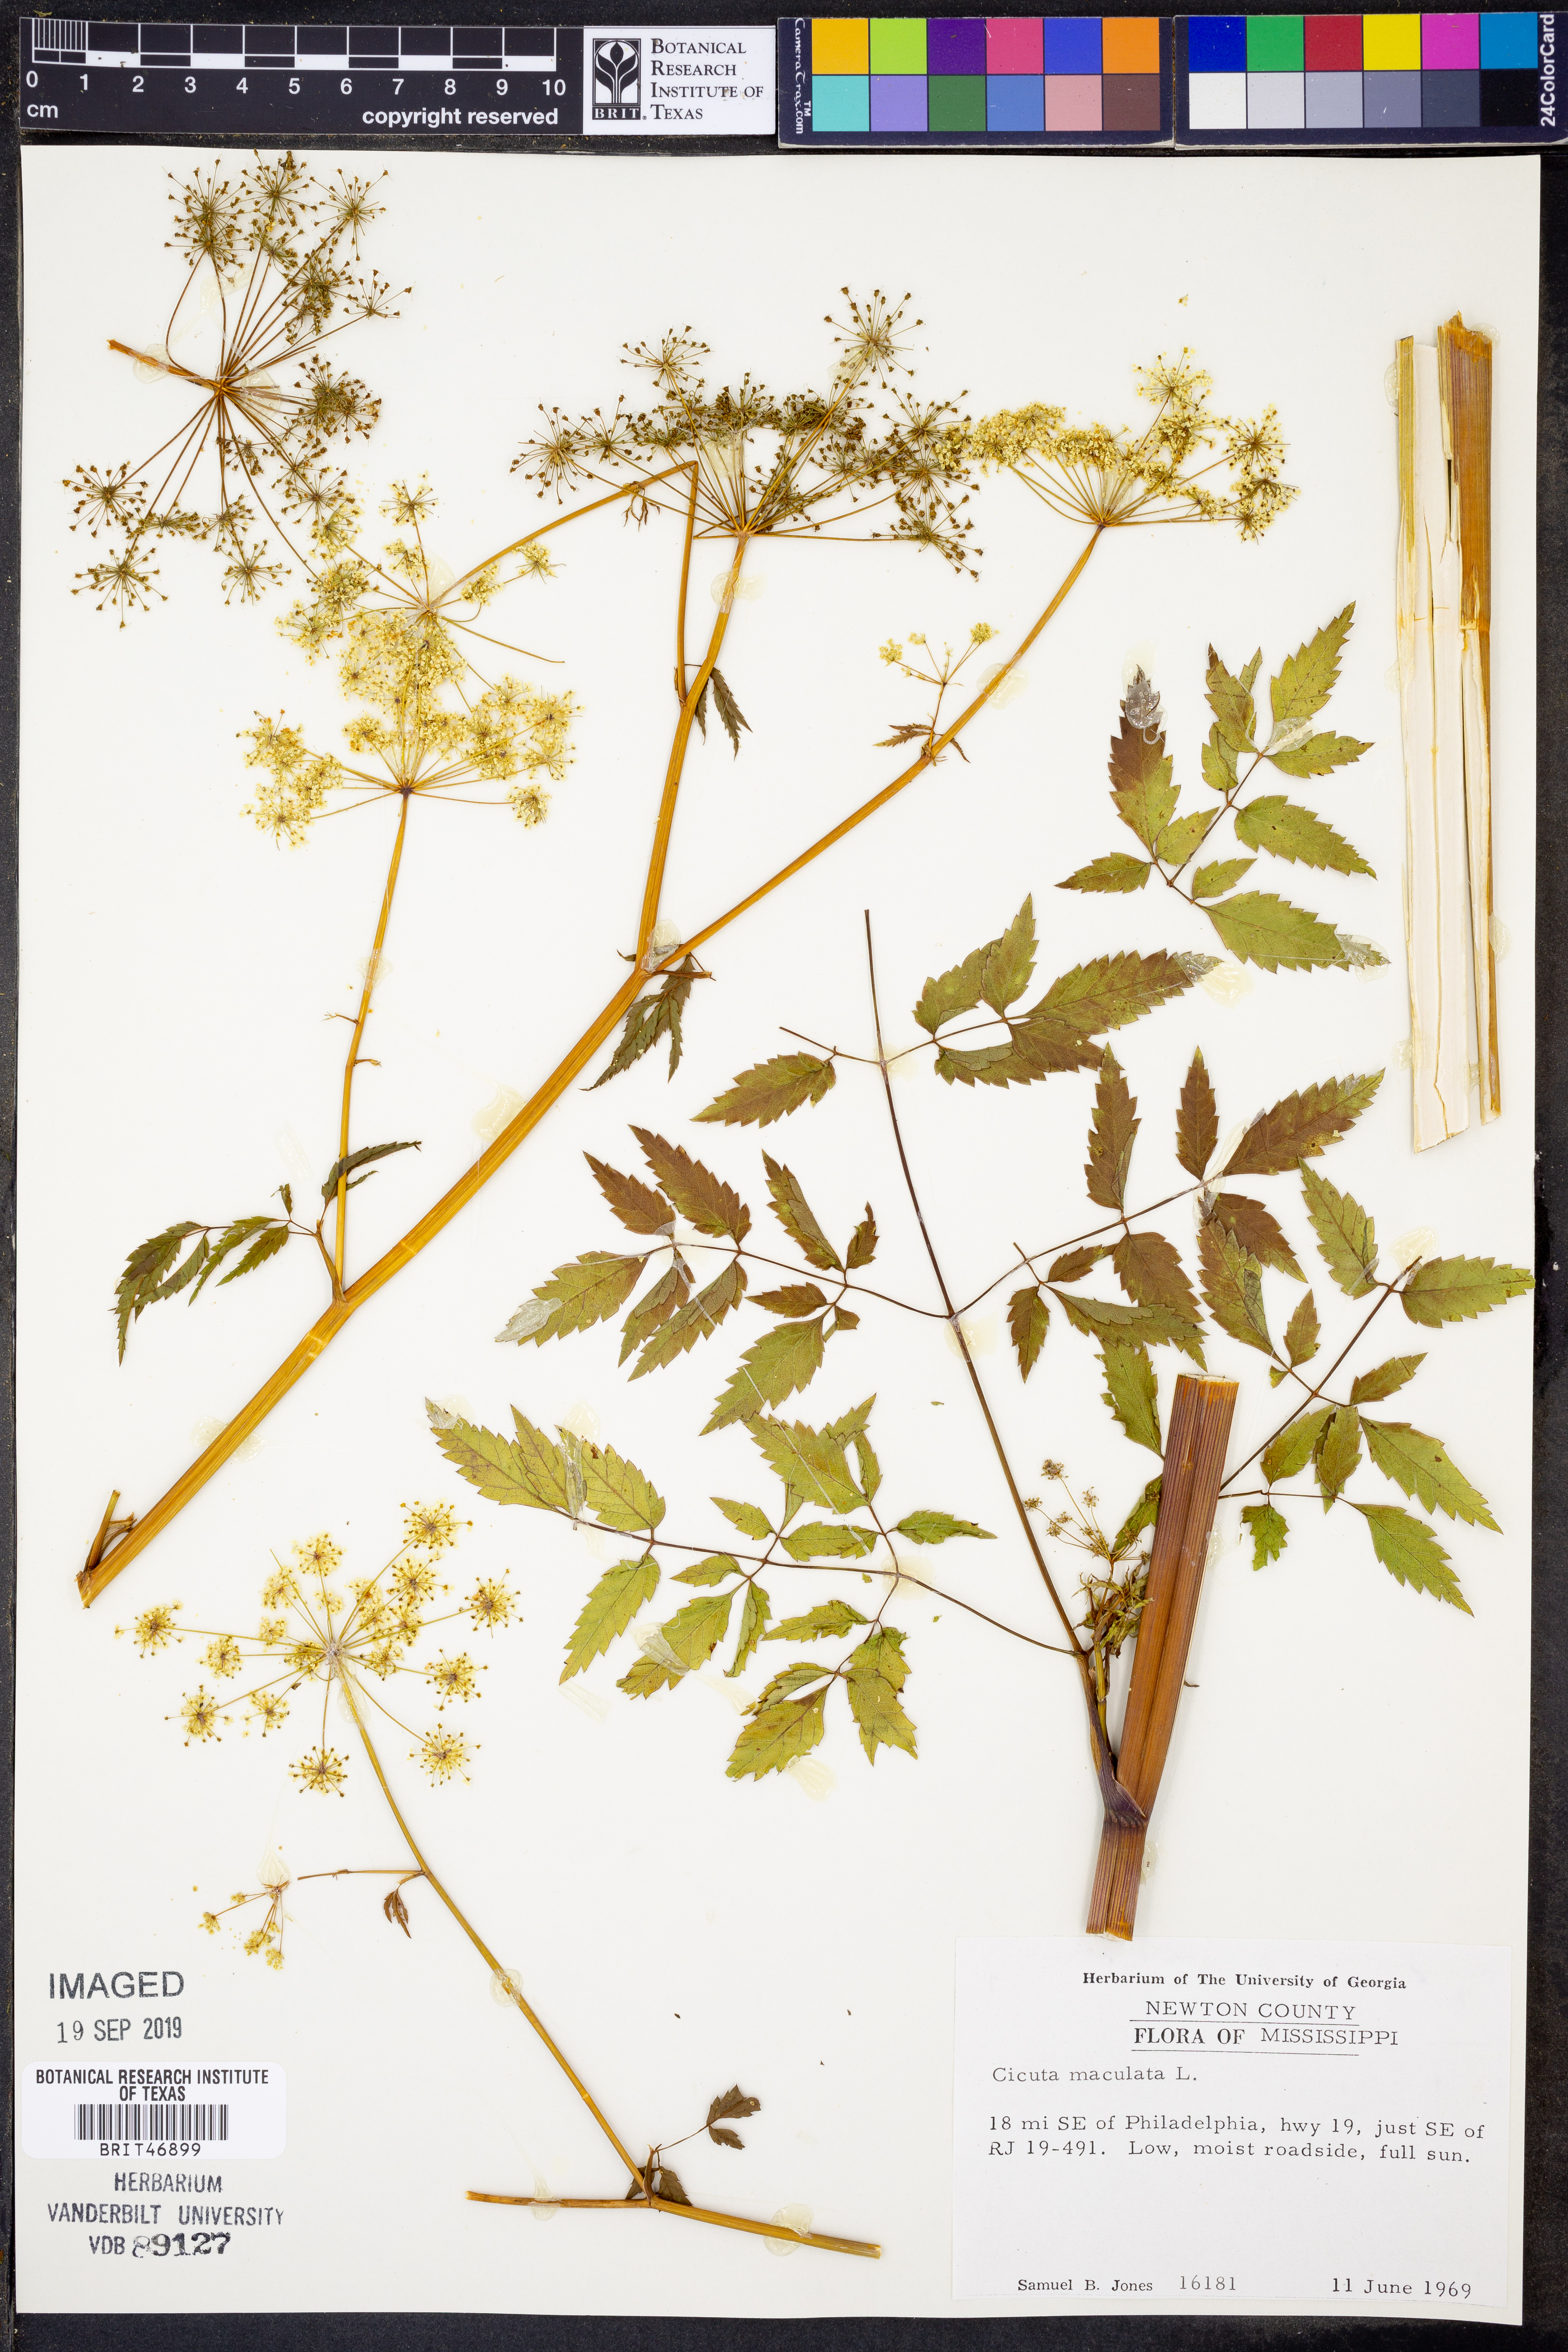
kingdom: Plantae
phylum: Tracheophyta
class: Magnoliopsida
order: Apiales
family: Apiaceae
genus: Cicuta
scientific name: Cicuta maculata
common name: Spotted cowbane
